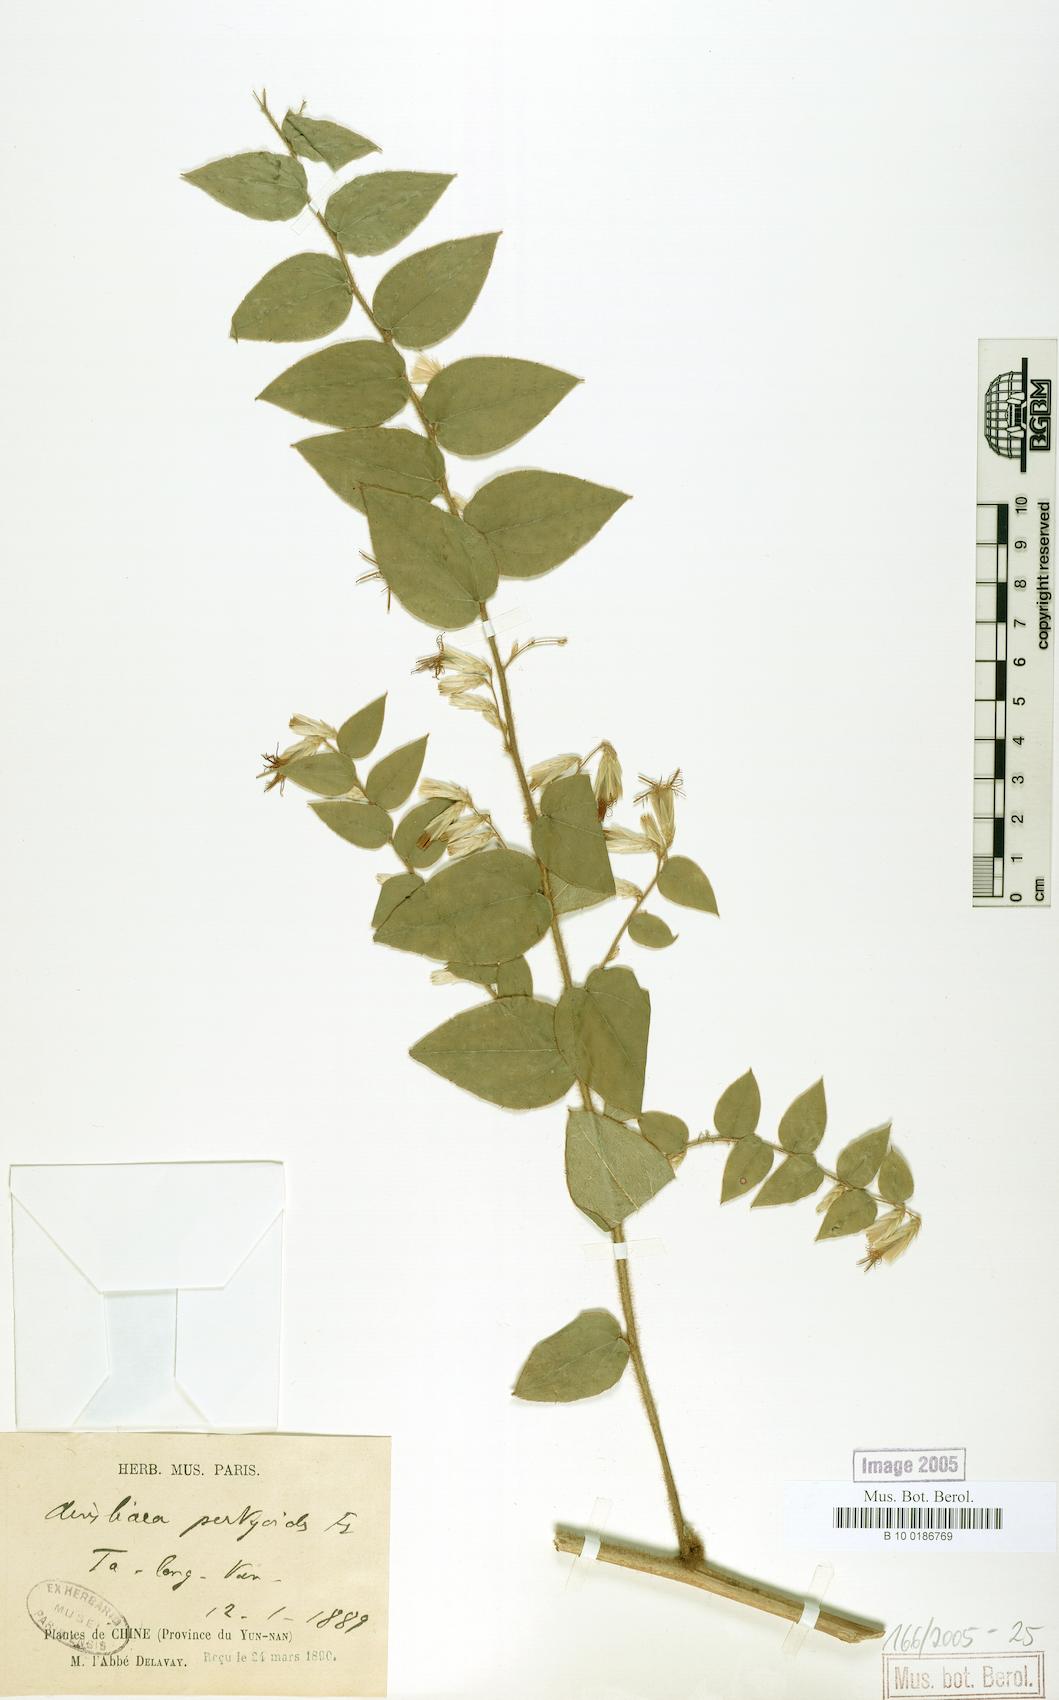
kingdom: Plantae
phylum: Tracheophyta
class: Magnoliopsida
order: Asterales
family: Asteraceae
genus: Ainsliaea
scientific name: Ainsliaea pertyoides
